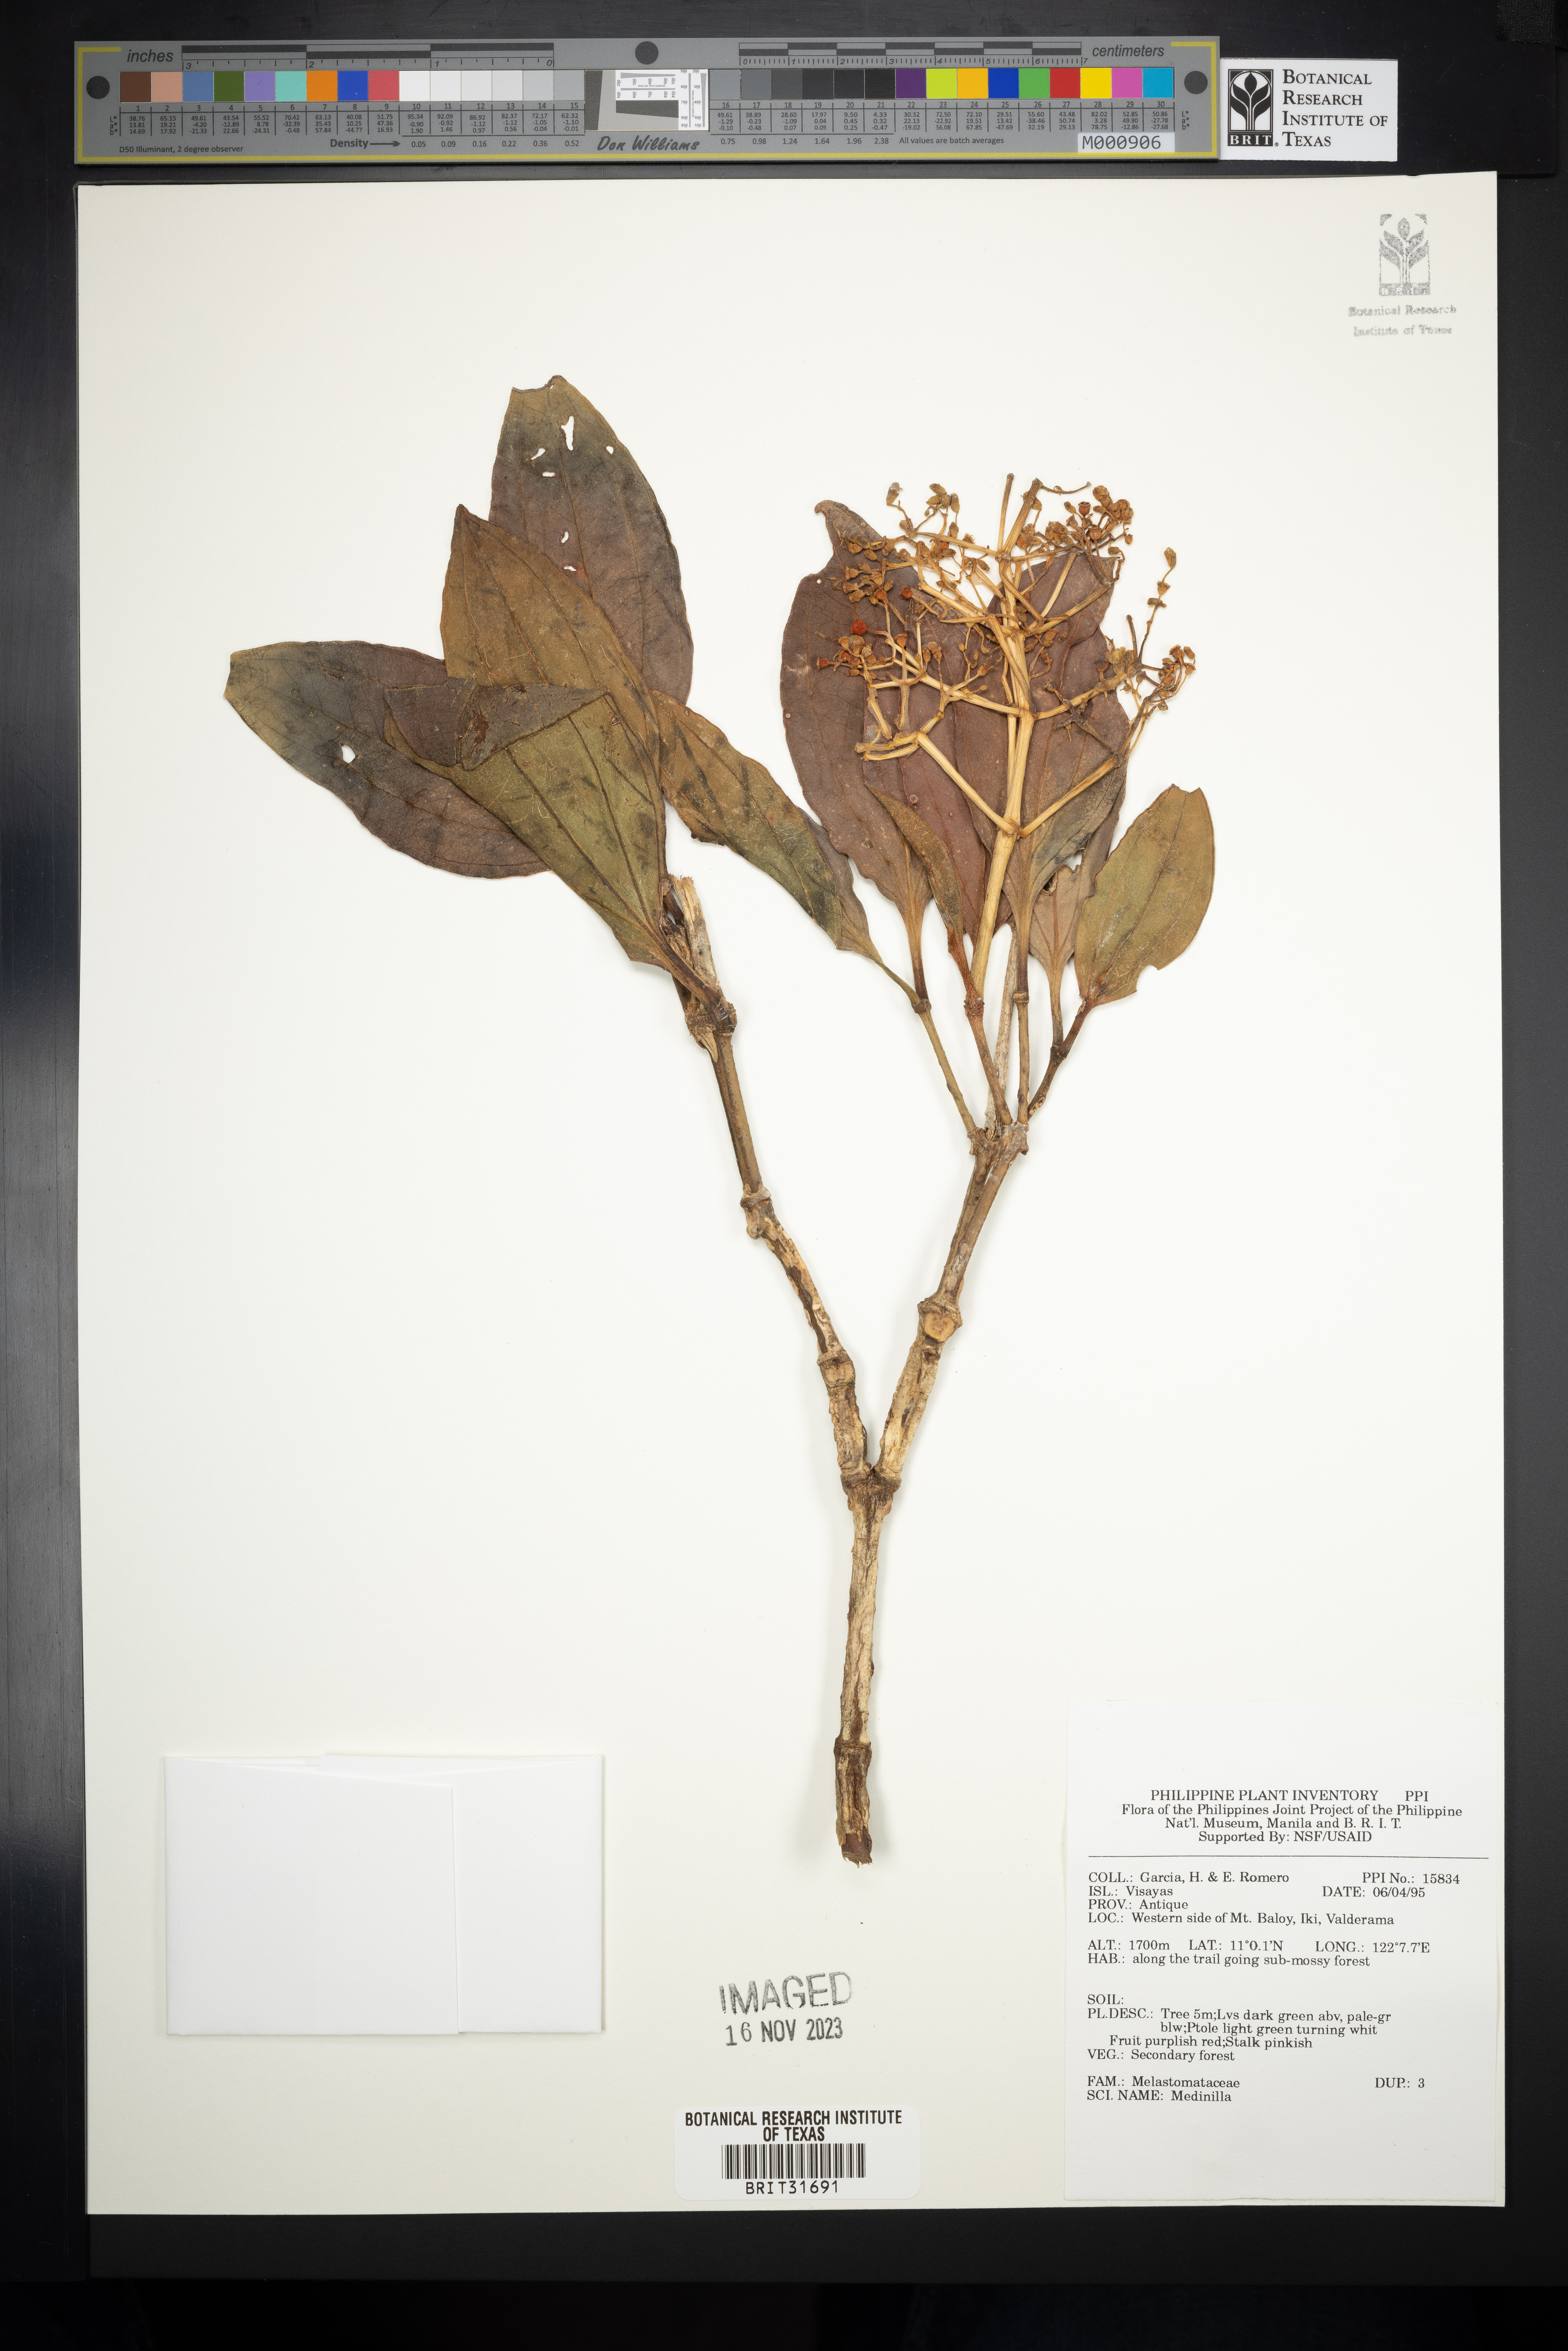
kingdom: Plantae
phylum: Tracheophyta
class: Magnoliopsida
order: Myrtales
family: Melastomataceae
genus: Medinilla
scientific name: Medinilla
